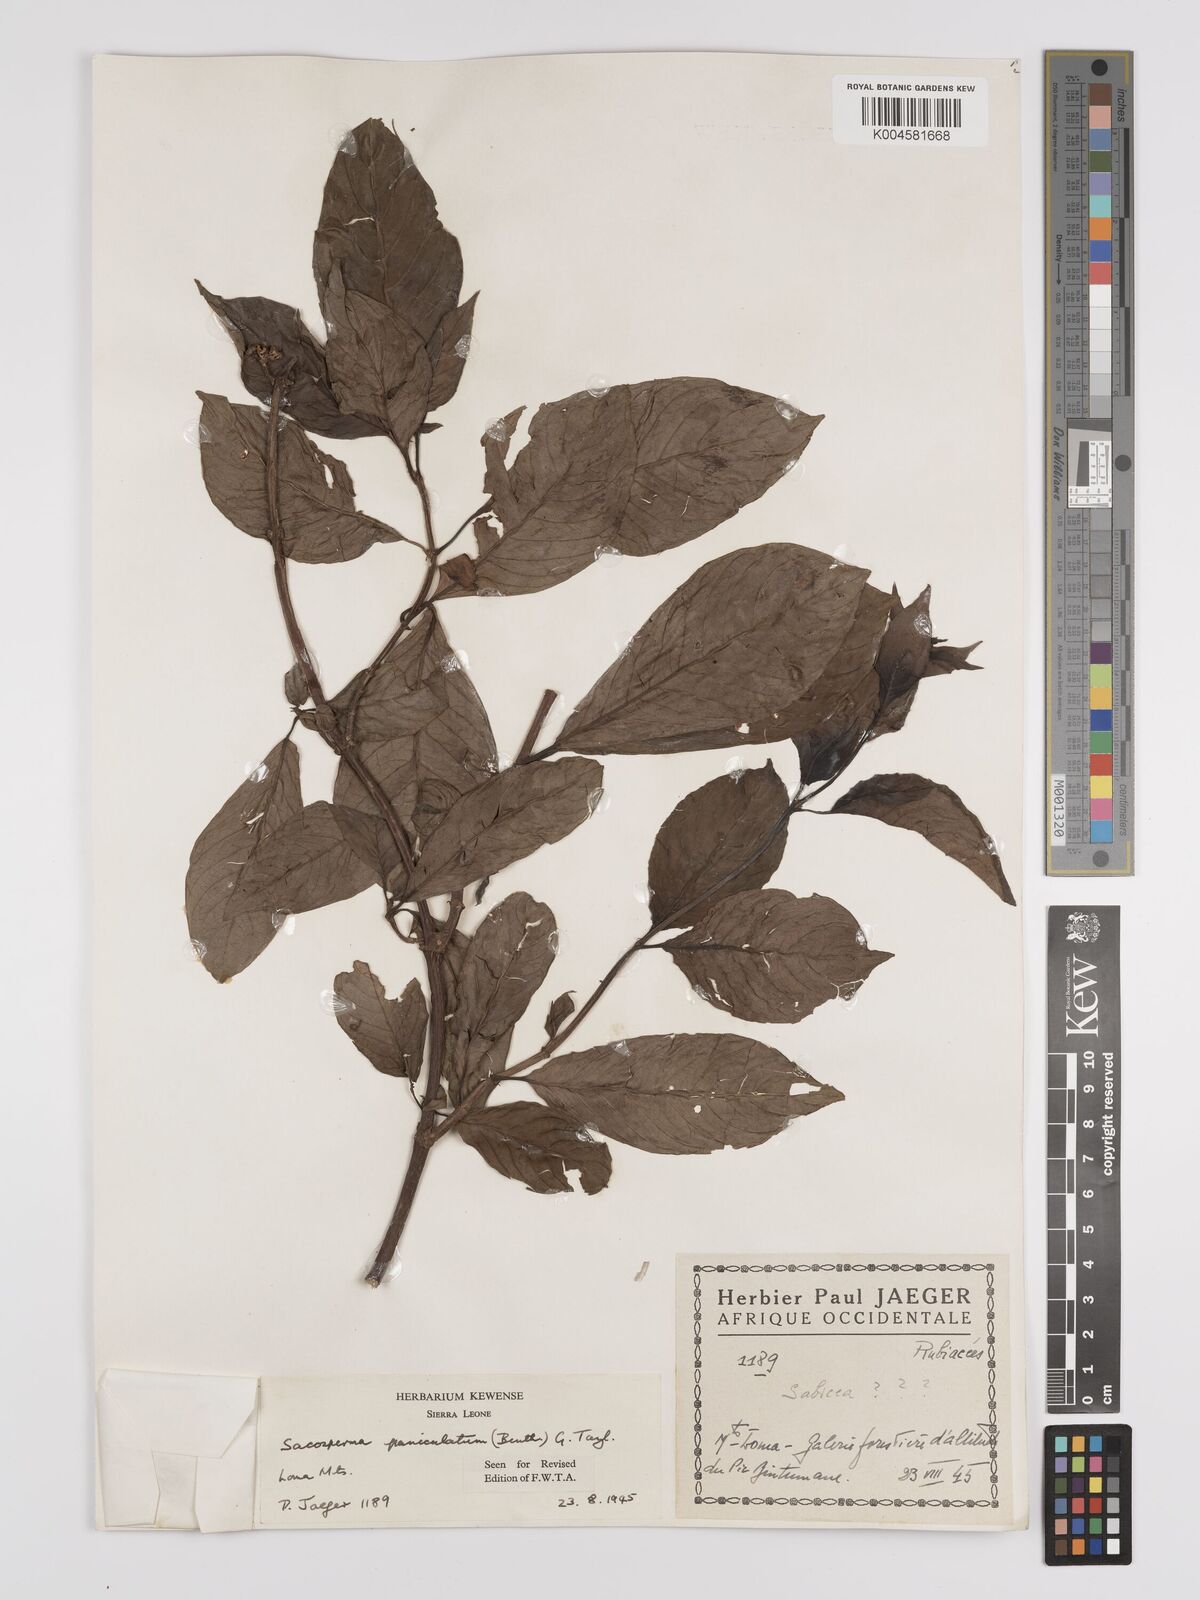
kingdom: Plantae
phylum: Tracheophyta
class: Magnoliopsida
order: Gentianales
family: Rubiaceae
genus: Sacosperma
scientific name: Sacosperma paniculatum
